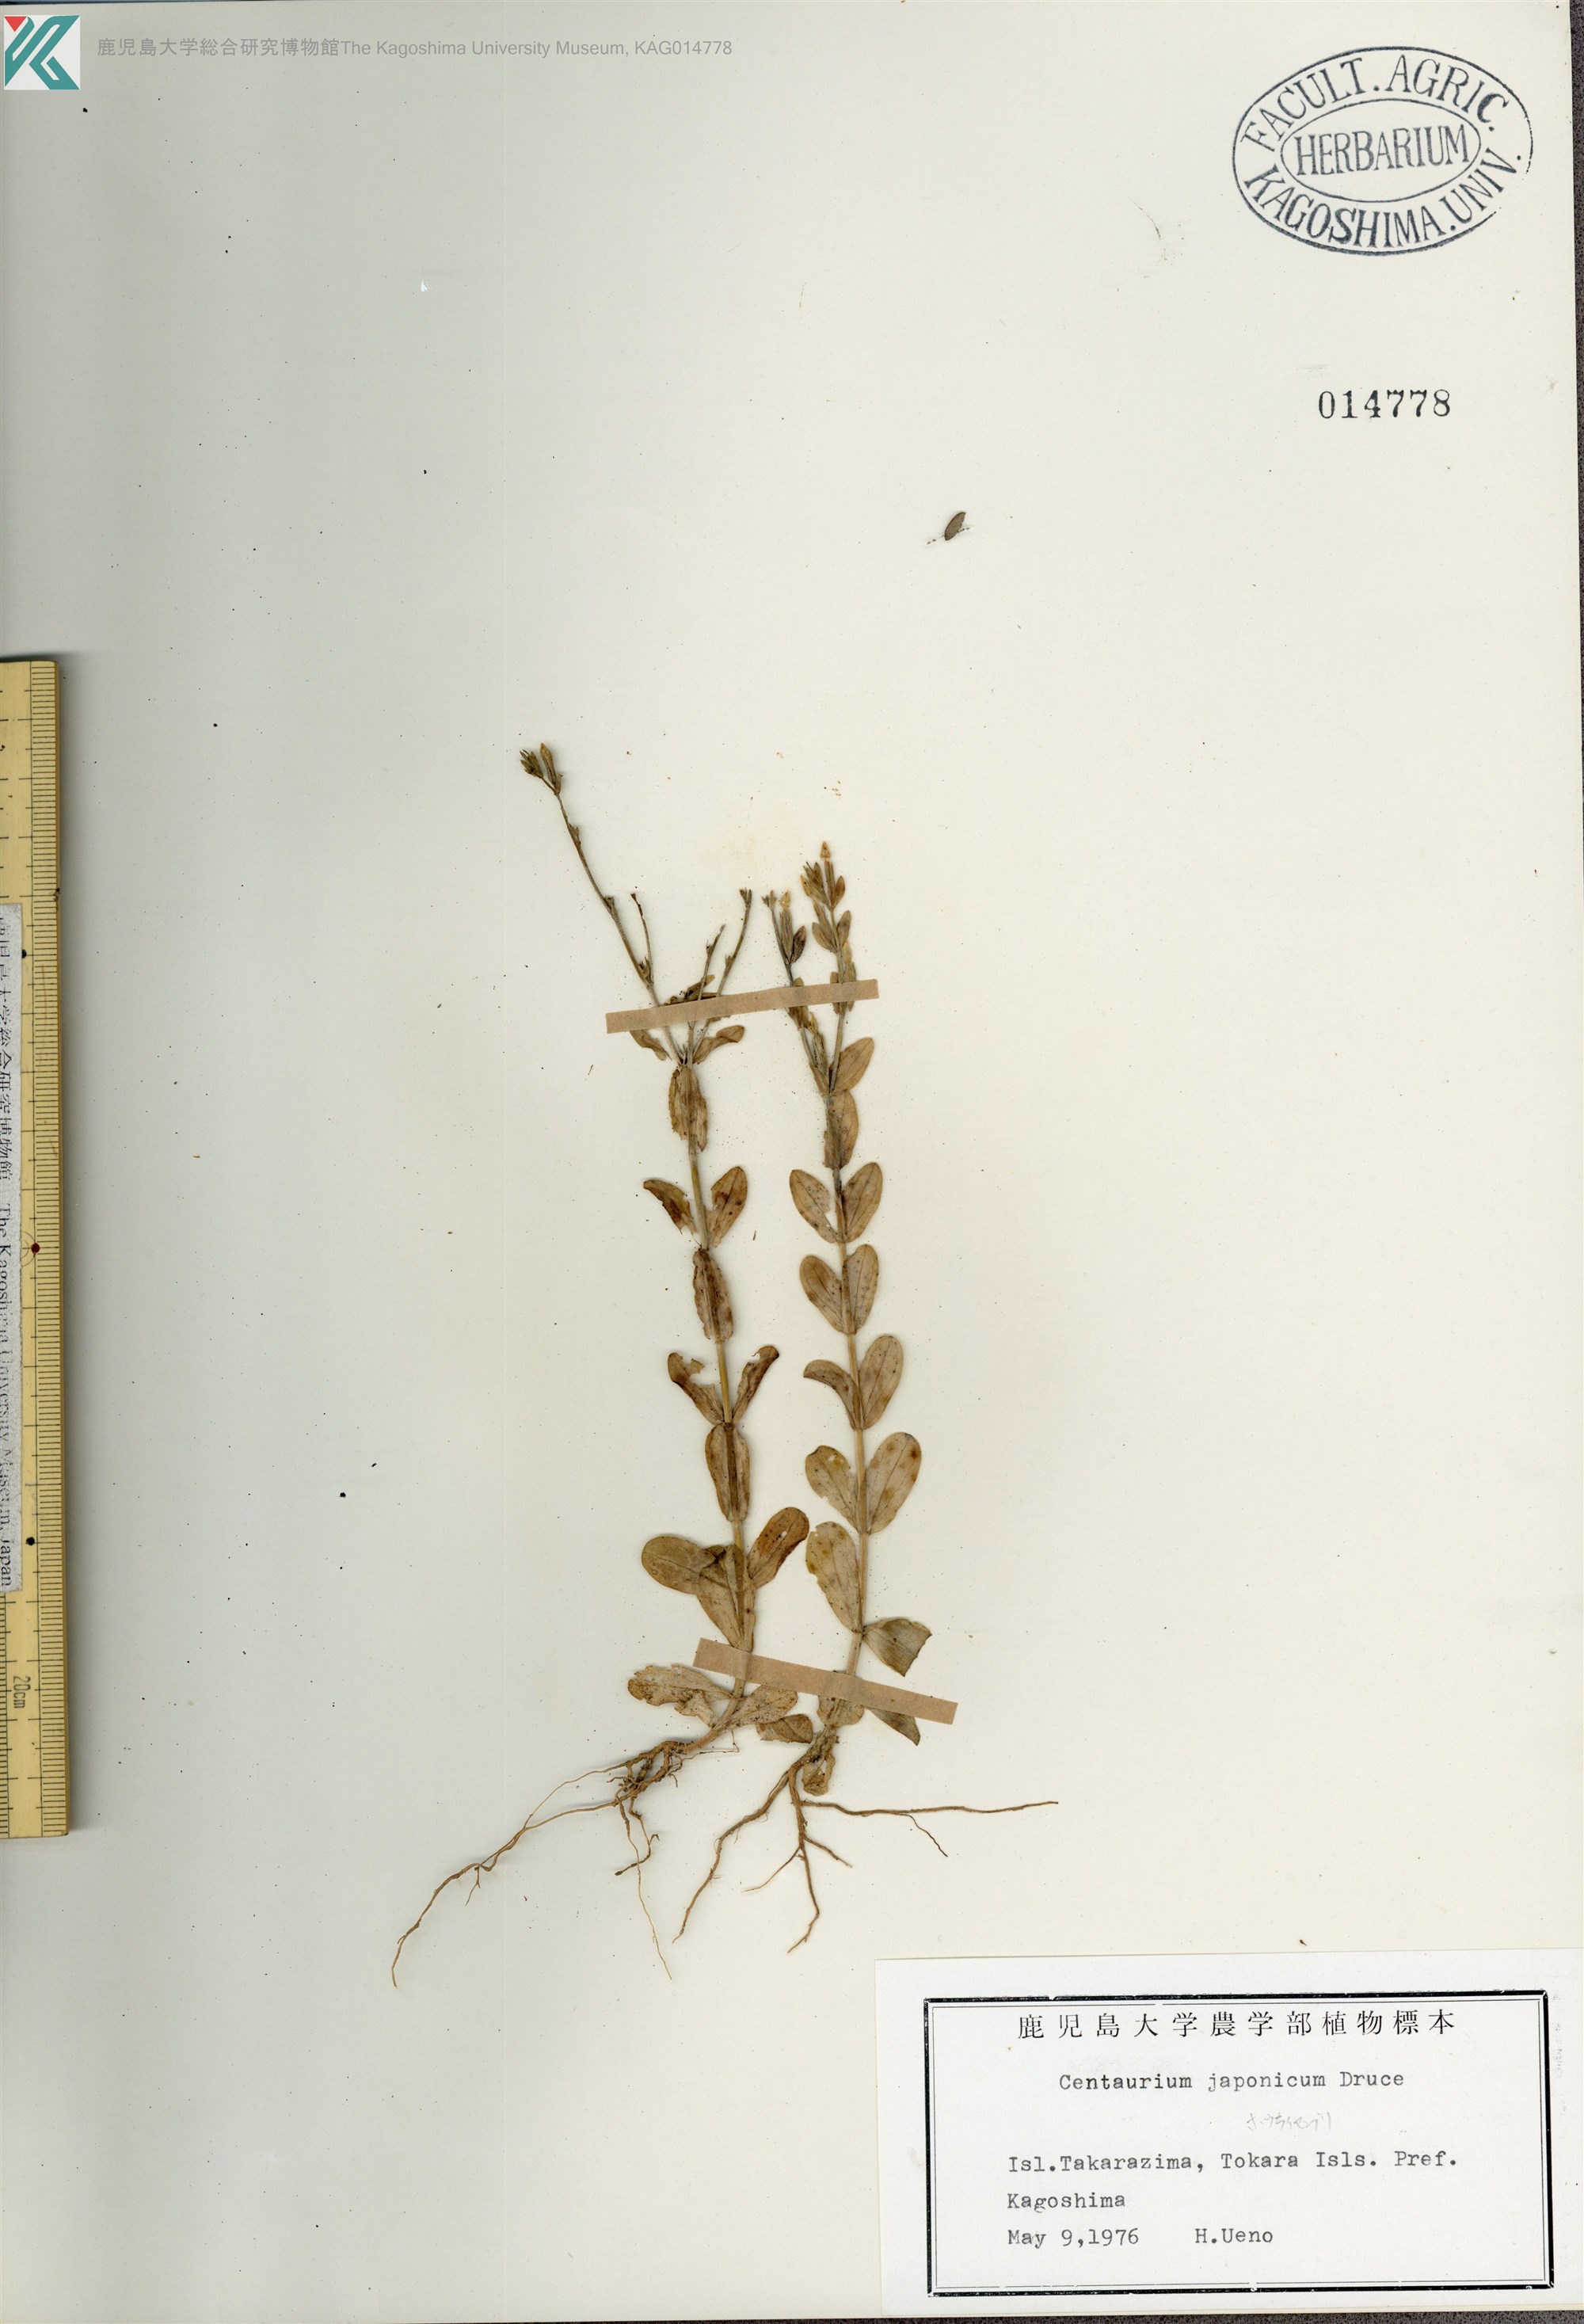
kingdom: Plantae
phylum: Tracheophyta
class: Magnoliopsida
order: Gentianales
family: Gentianaceae
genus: Schenkia
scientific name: Schenkia japonica
